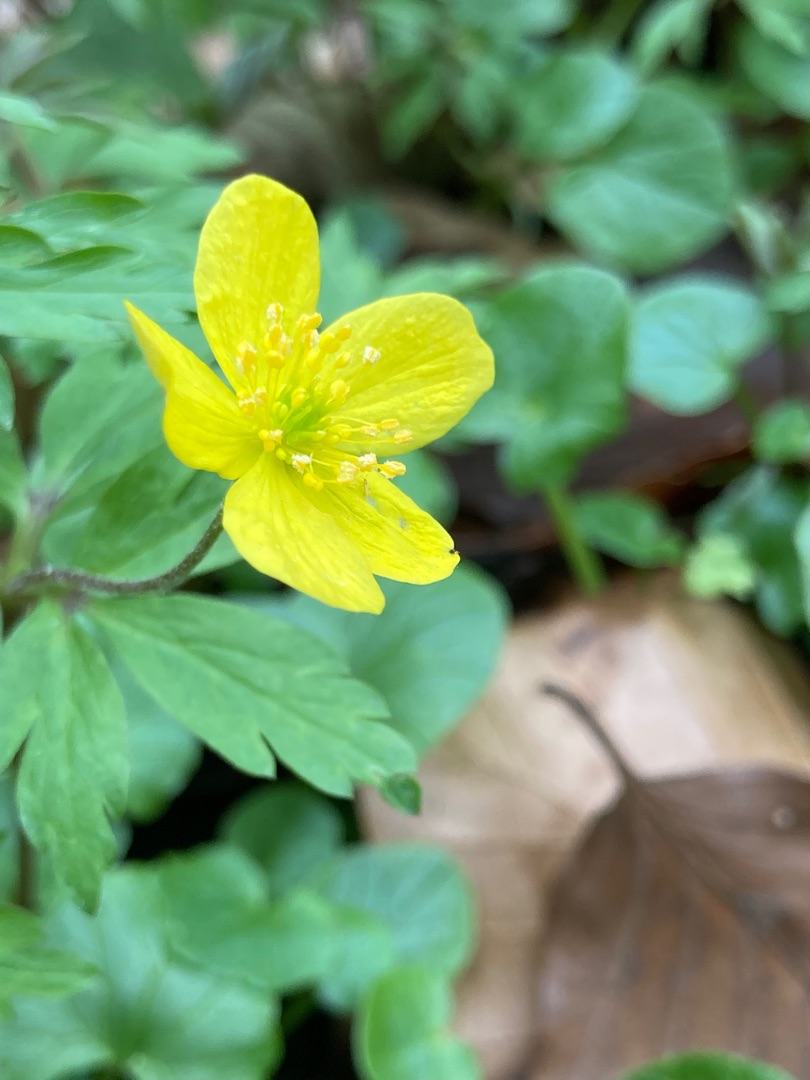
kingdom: Plantae
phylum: Tracheophyta
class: Magnoliopsida
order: Ranunculales
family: Ranunculaceae
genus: Anemone
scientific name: Anemone ranunculoides
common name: Gul anemone
